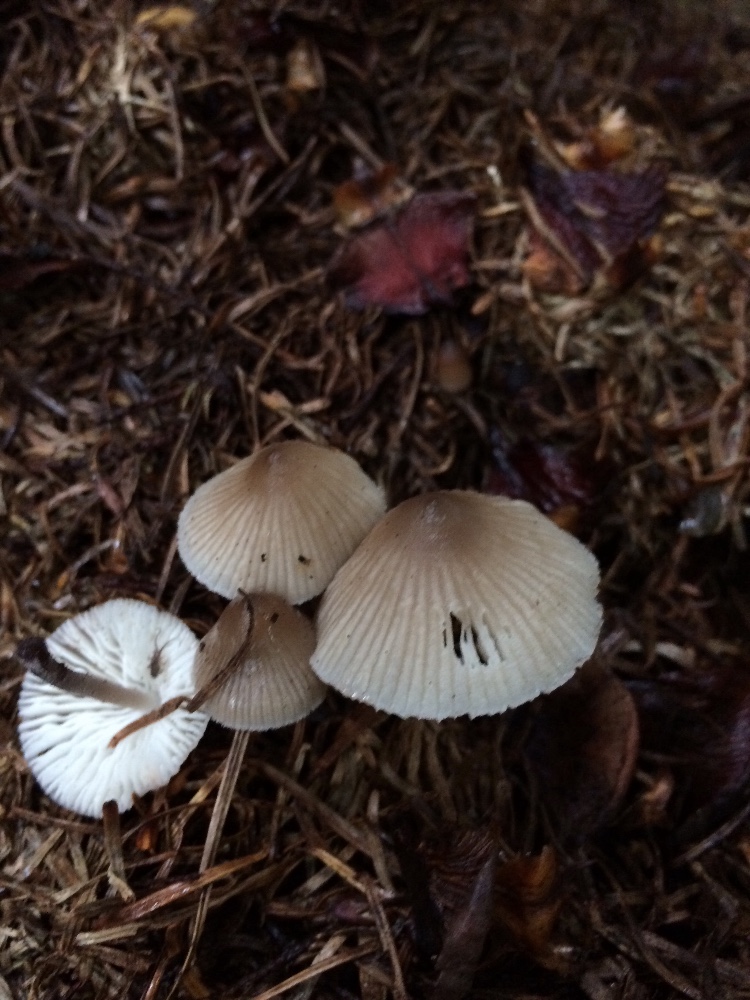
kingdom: Fungi
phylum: Basidiomycota
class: Agaricomycetes
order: Agaricales
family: Mycenaceae
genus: Mycena
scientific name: Mycena zephirus
